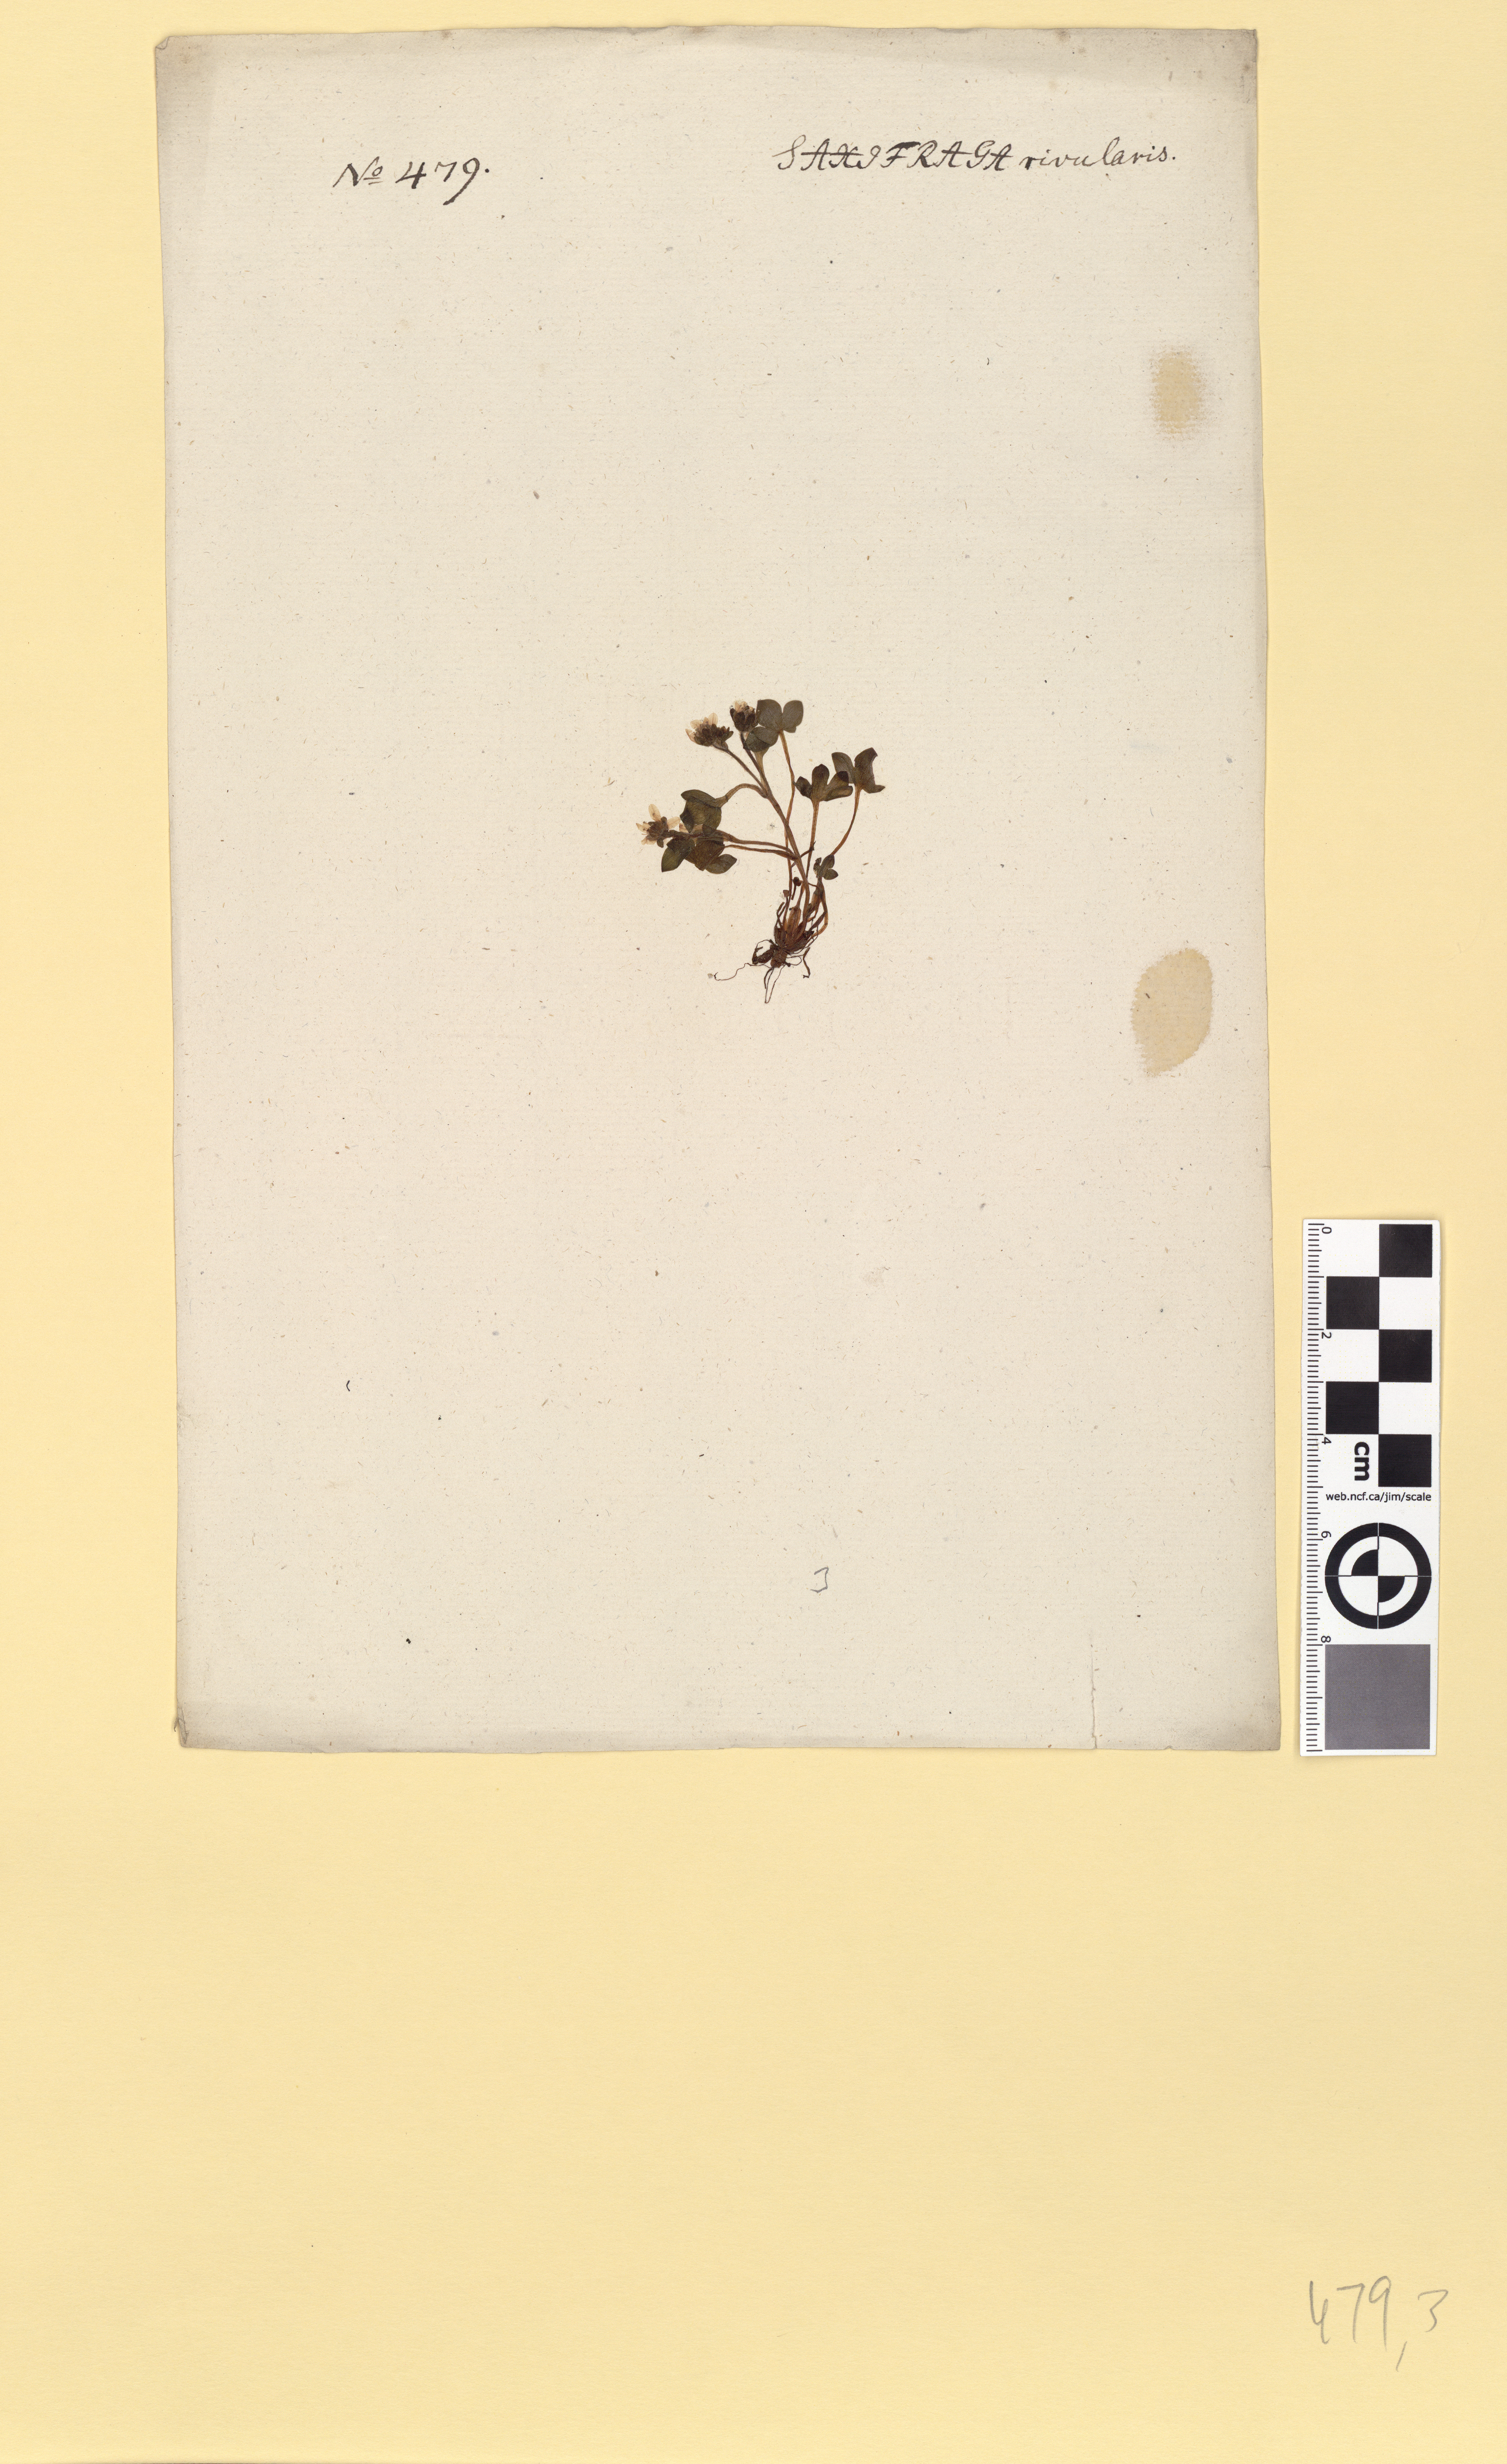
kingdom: Plantae
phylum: Tracheophyta
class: Magnoliopsida
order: Saxifragales
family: Saxifragaceae
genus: Saxifraga
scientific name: Saxifraga rivularis
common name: Highland saxifrage
